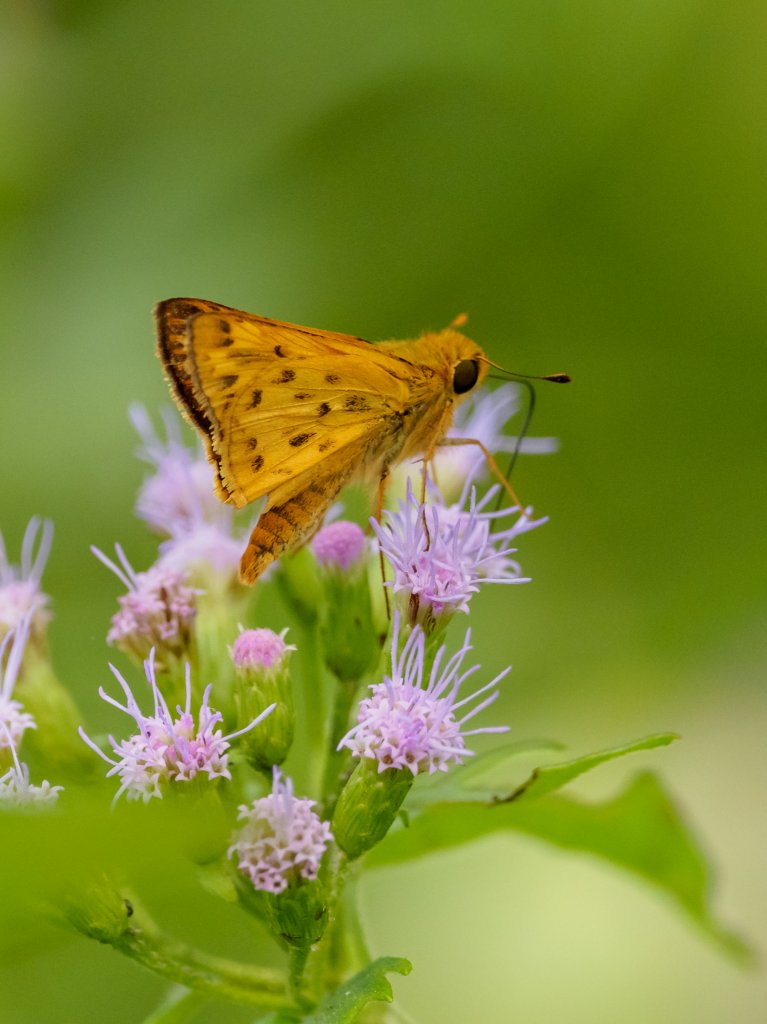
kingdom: Animalia
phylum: Arthropoda
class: Insecta
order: Lepidoptera
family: Hesperiidae
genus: Hylephila
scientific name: Hylephila phyleus
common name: Fiery Skipper
